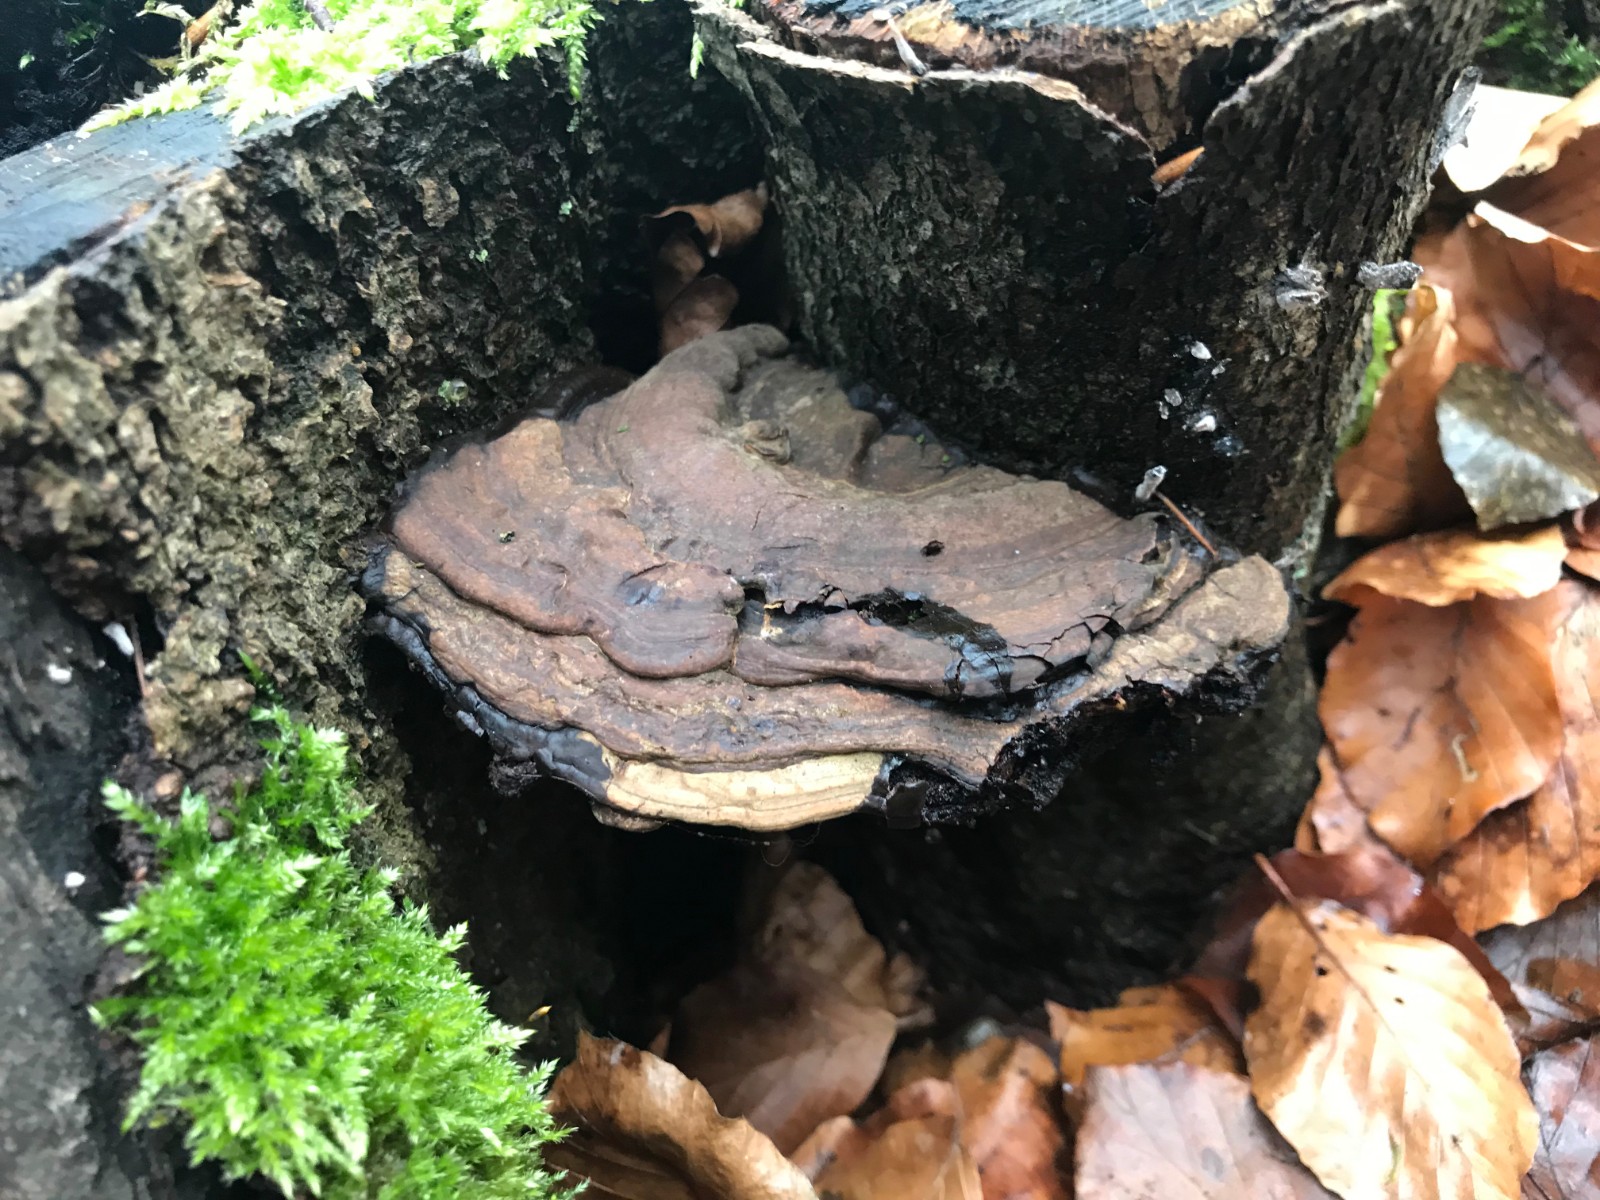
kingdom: Fungi
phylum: Basidiomycota
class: Agaricomycetes
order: Polyporales
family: Polyporaceae
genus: Ganoderma
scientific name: Ganoderma applanatum
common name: flad lakporesvamp
